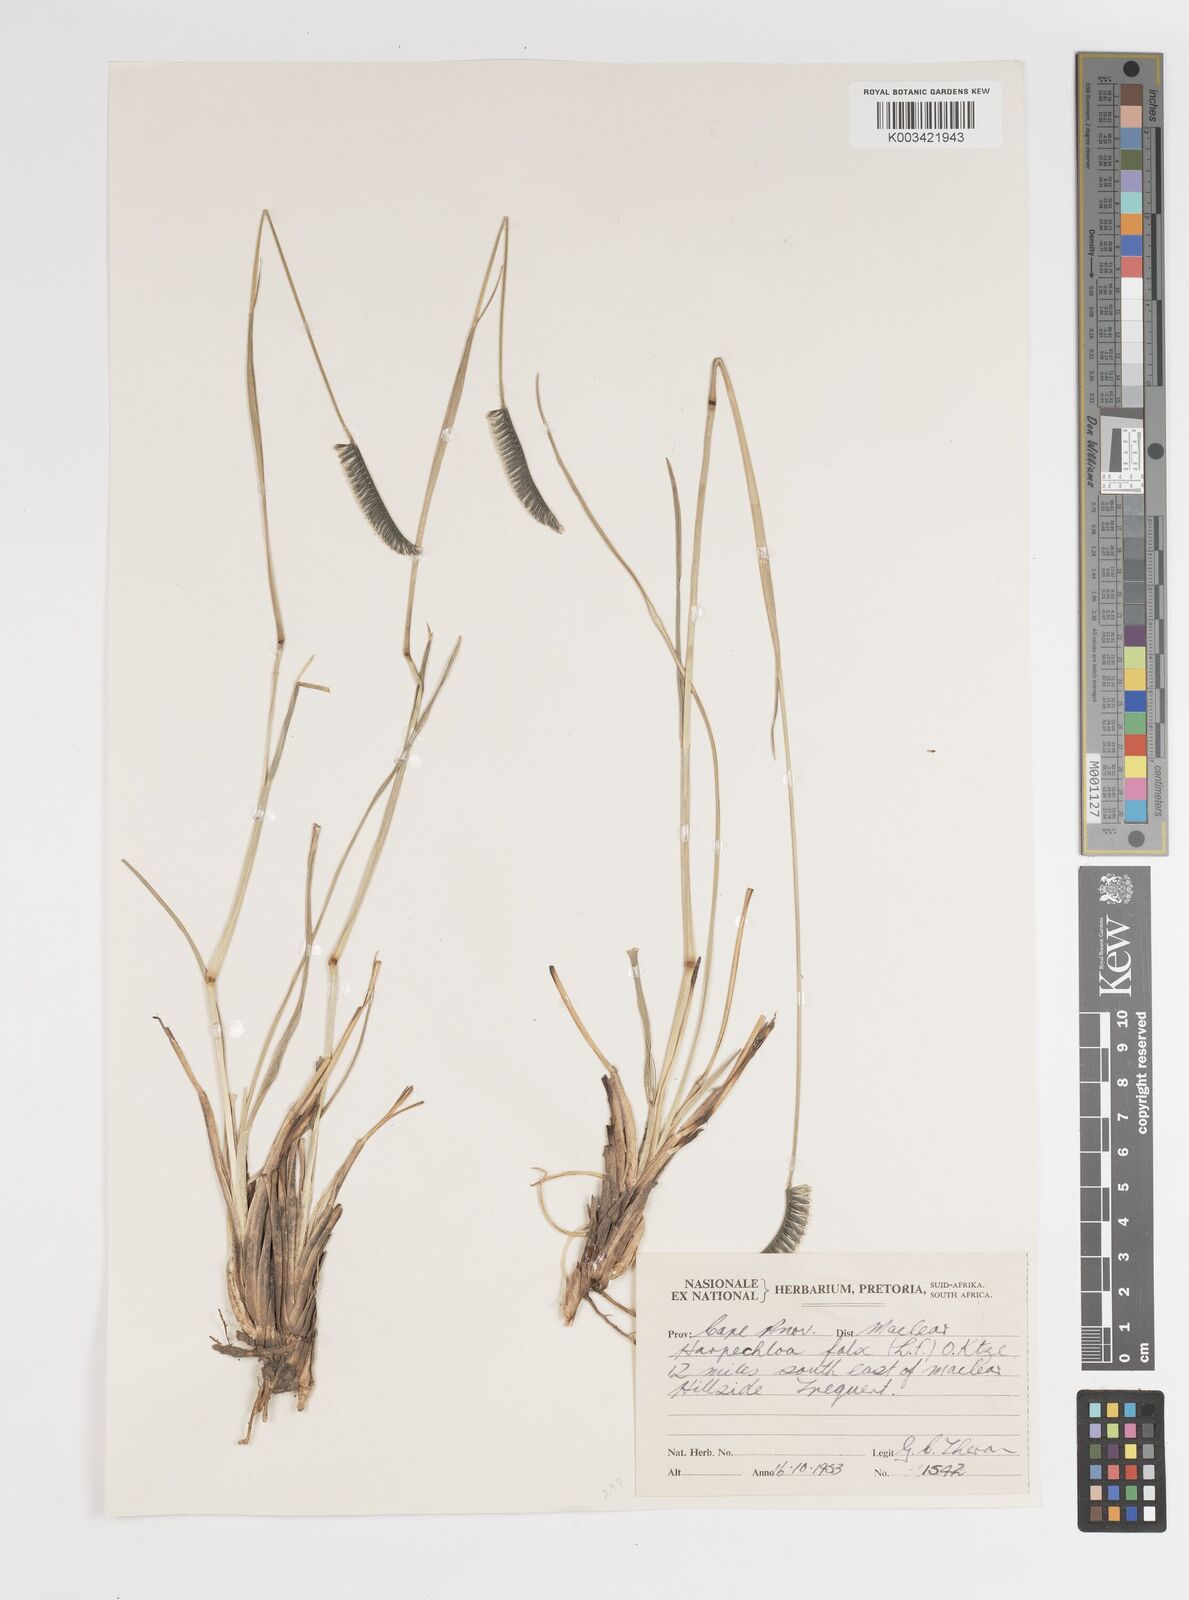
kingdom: Plantae
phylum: Tracheophyta
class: Liliopsida
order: Poales
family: Poaceae
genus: Harpochloa
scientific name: Harpochloa falx
